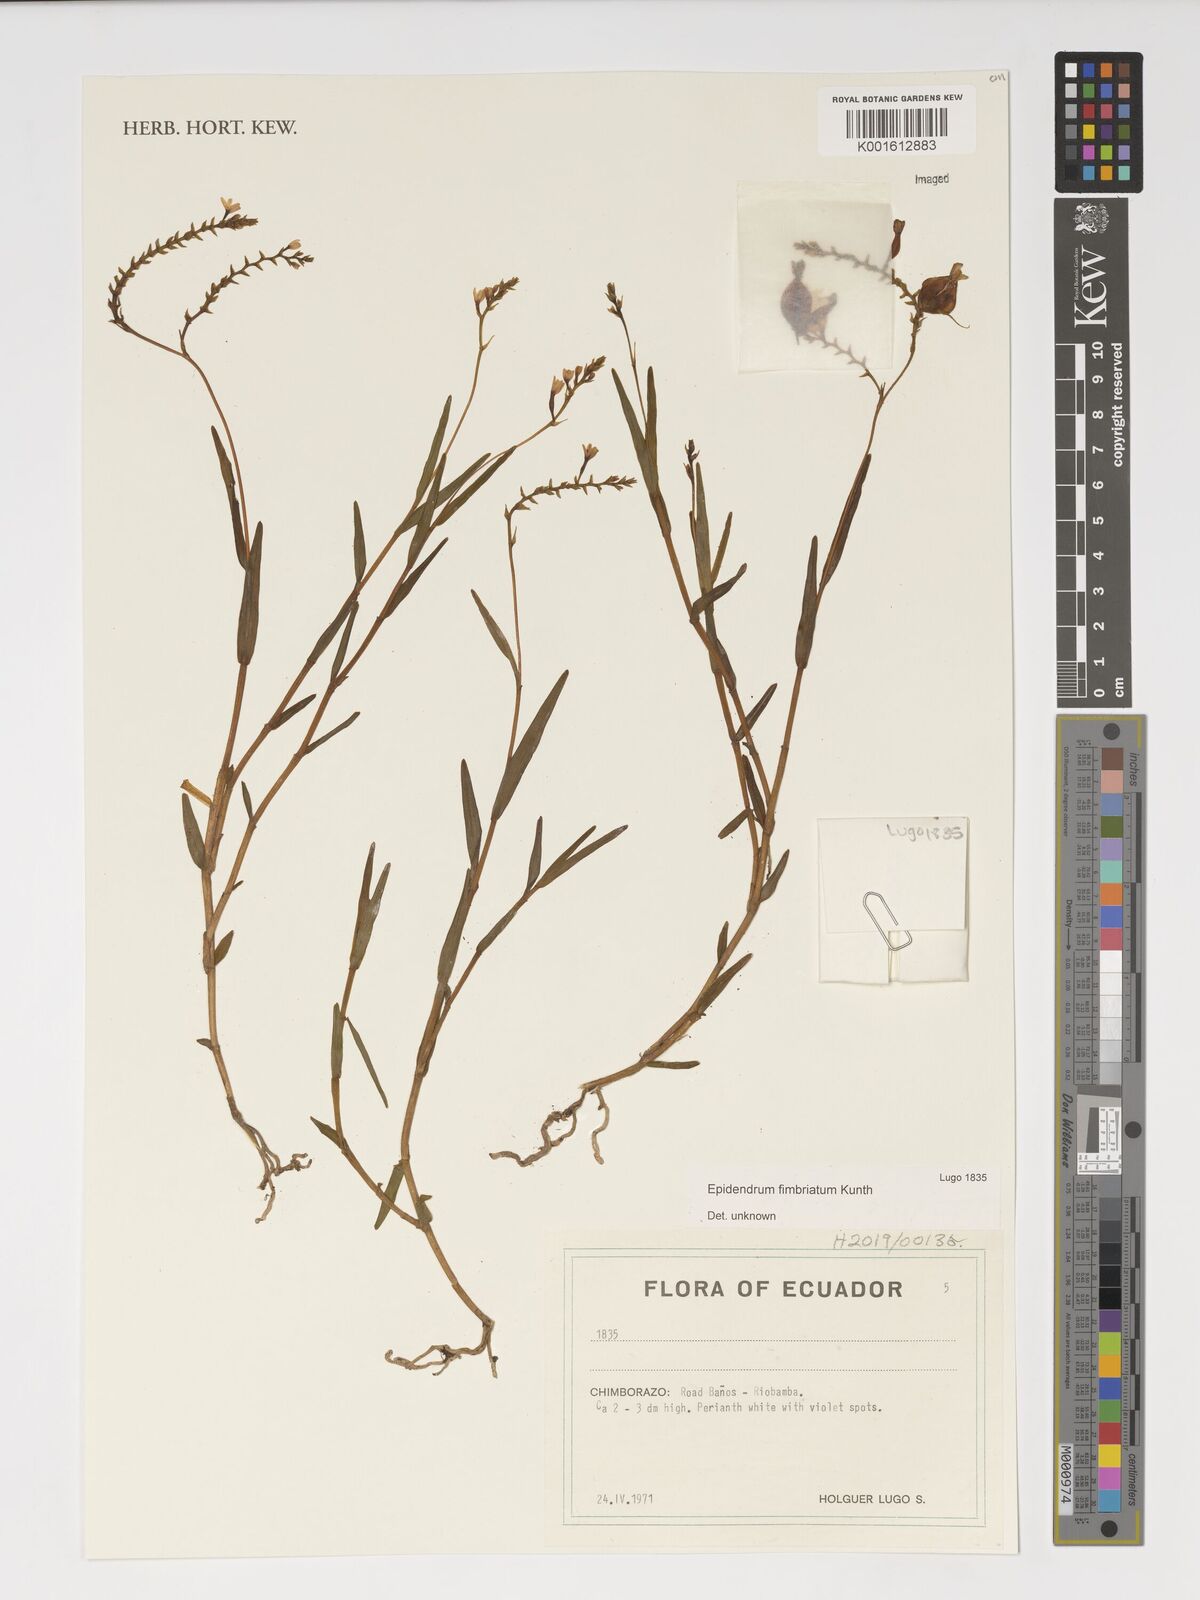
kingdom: Plantae
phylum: Tracheophyta
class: Liliopsida
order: Asparagales
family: Orchidaceae
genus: Epidendrum
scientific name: Epidendrum fimbriatum
